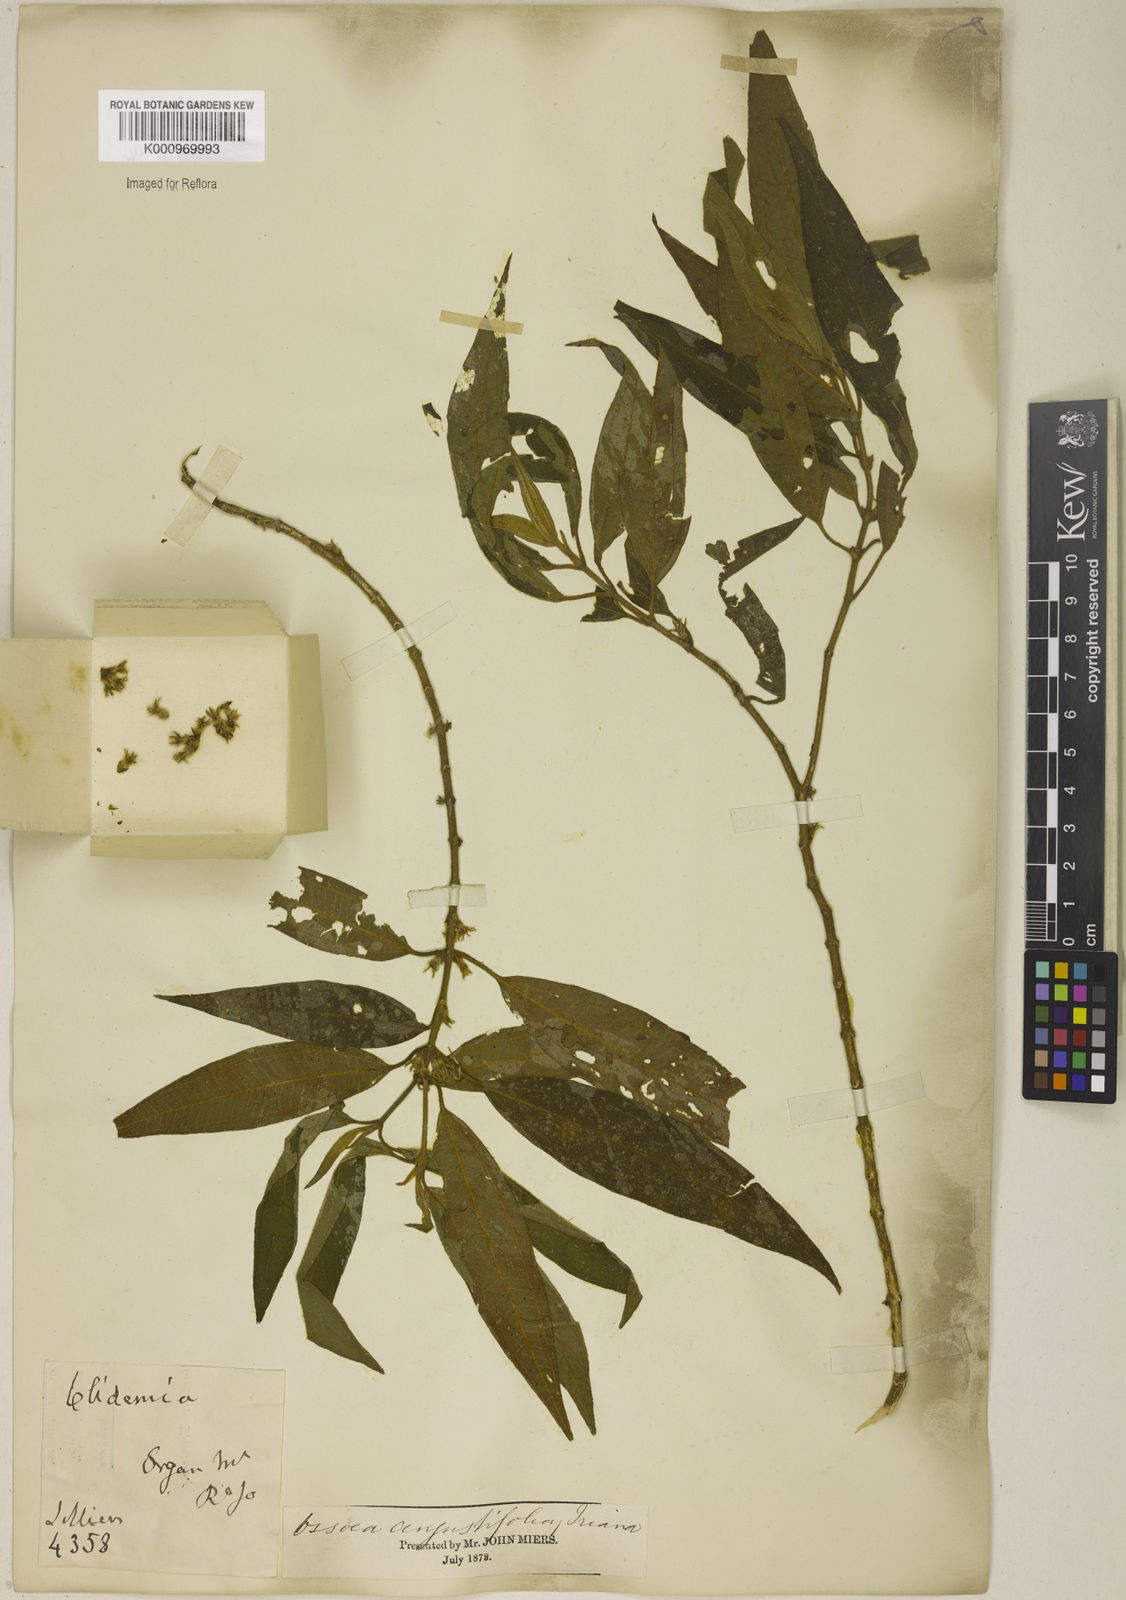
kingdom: Plantae
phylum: Tracheophyta
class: Magnoliopsida
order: Myrtales
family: Melastomataceae
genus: Miconia
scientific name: Miconia corcovadensis
